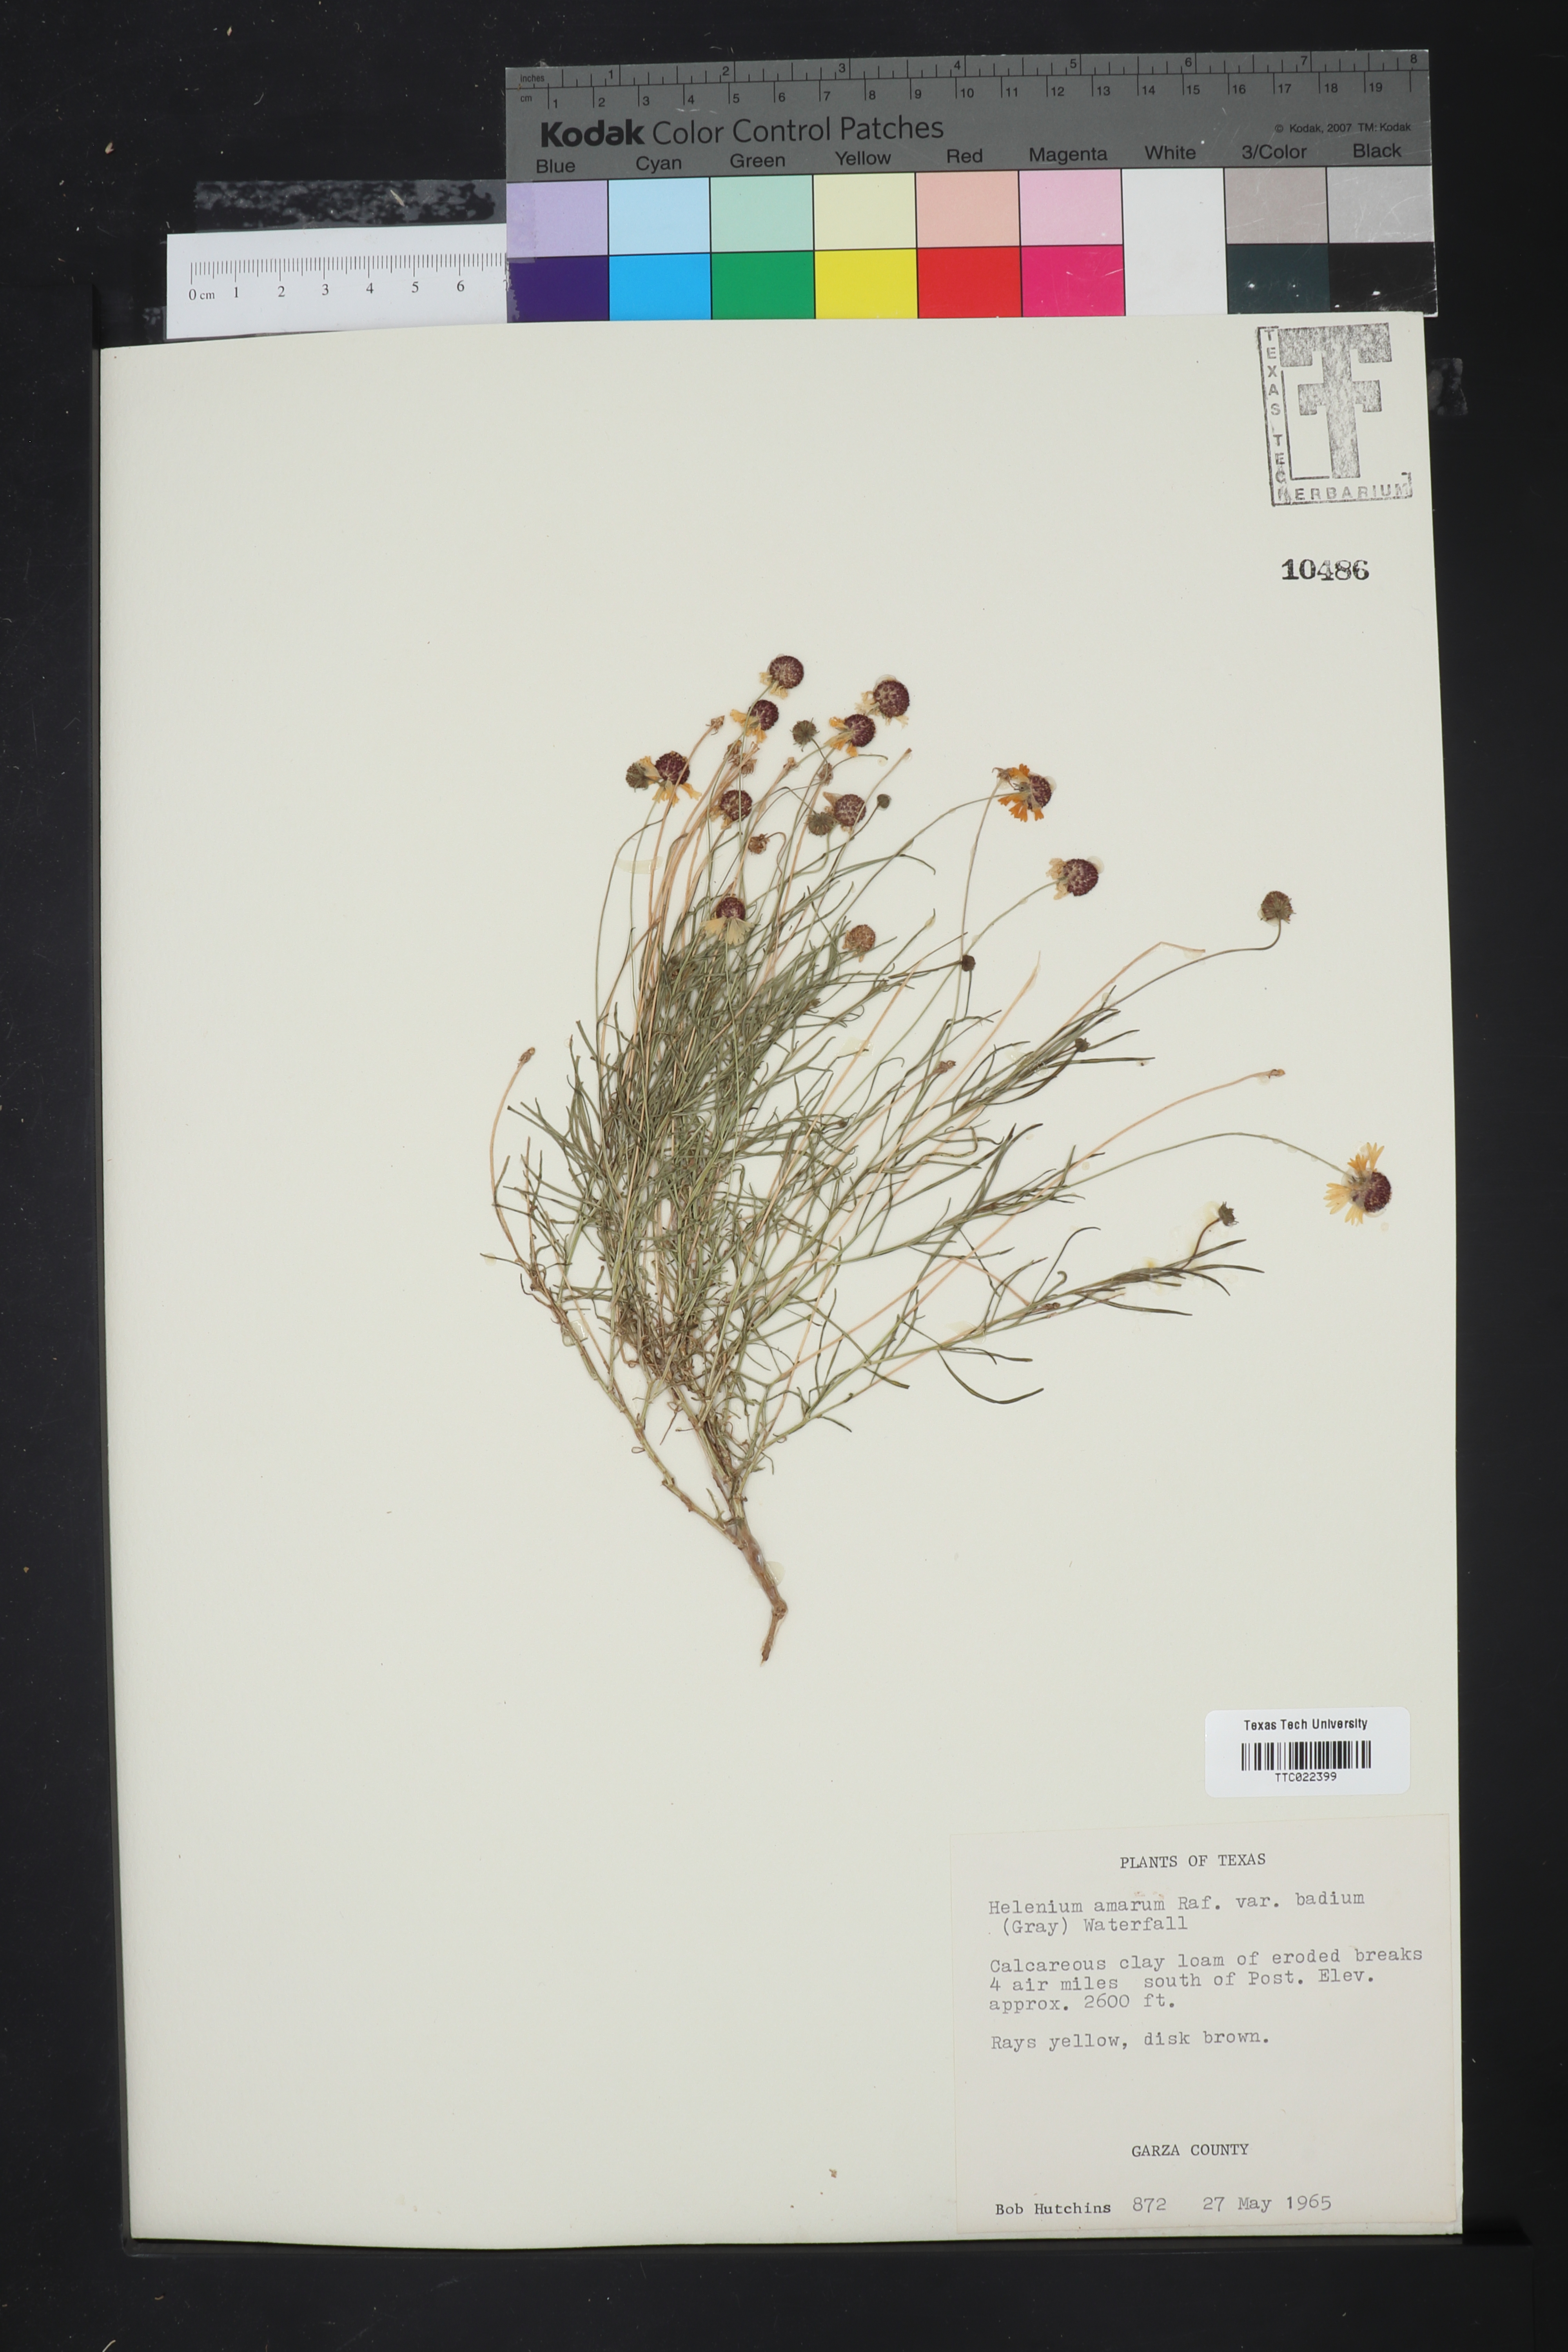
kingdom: Plantae
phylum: Tracheophyta
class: Magnoliopsida
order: Asterales
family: Asteraceae
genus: Helenium
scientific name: Helenium amarum
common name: Bitter sneezeweed
